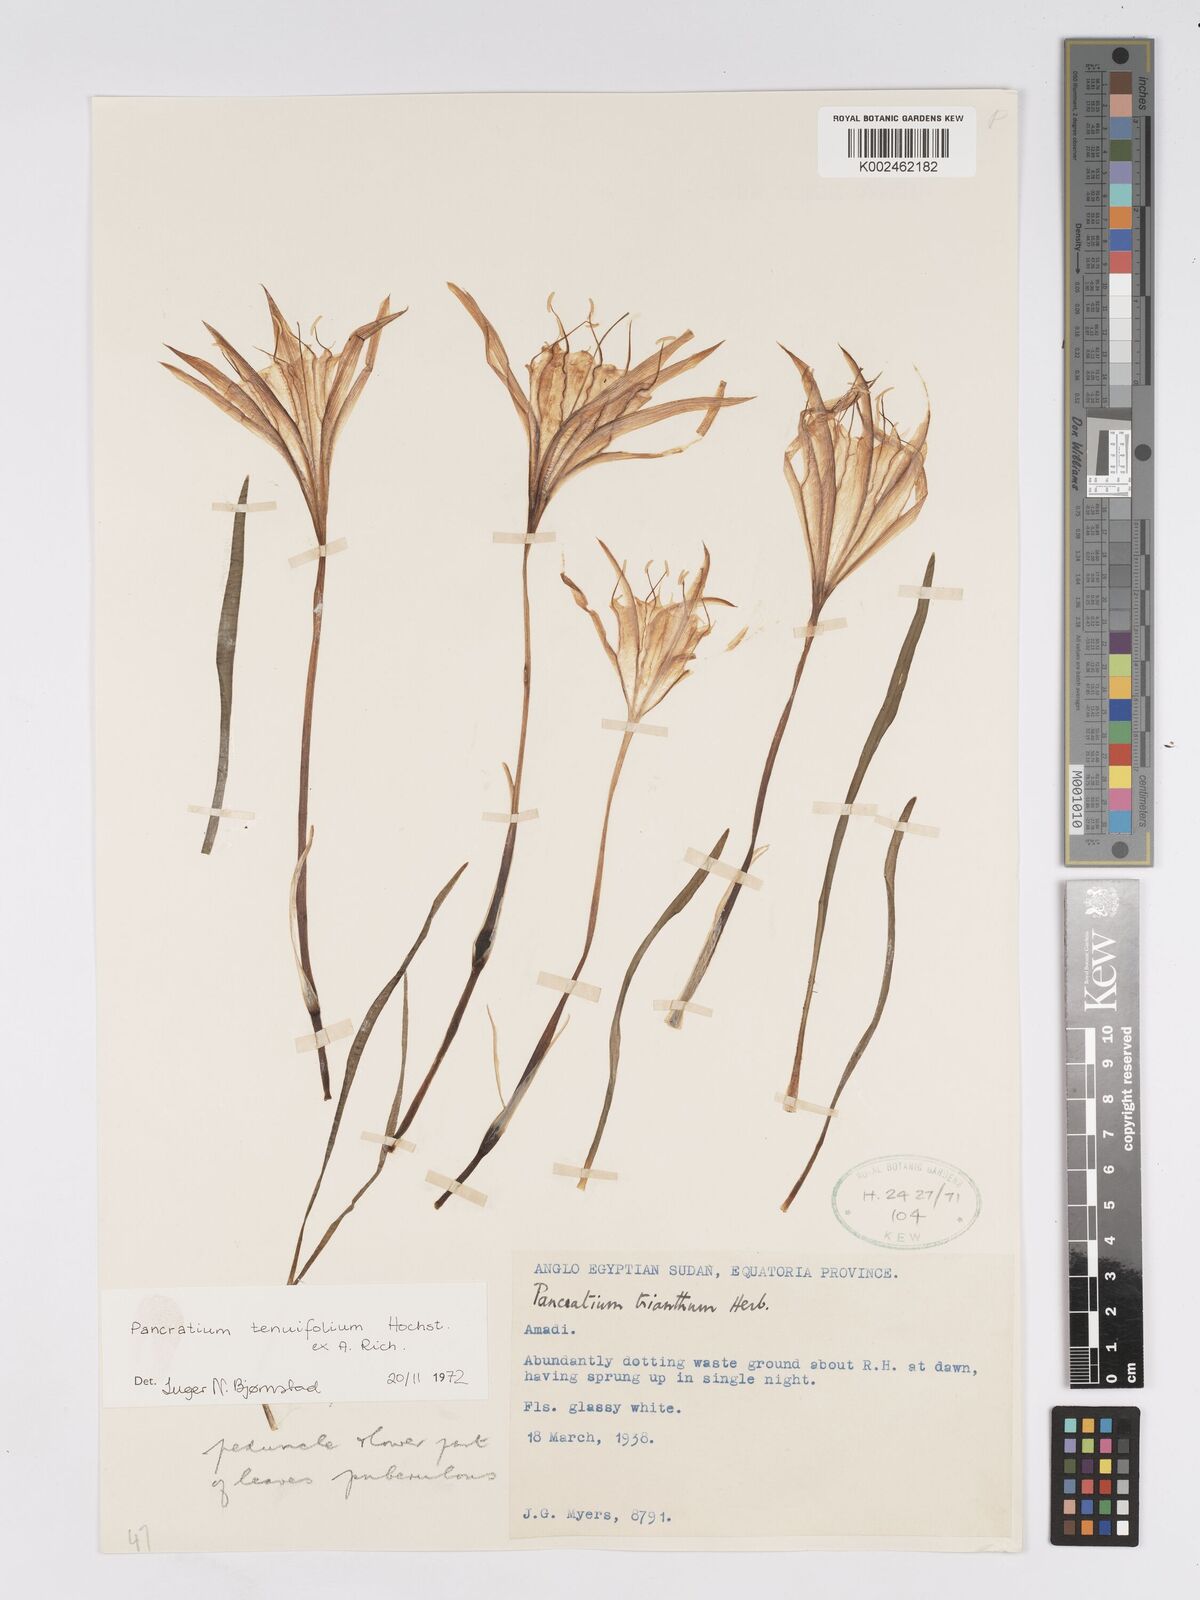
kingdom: Plantae
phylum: Tracheophyta
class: Liliopsida
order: Asparagales
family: Amaryllidaceae
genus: Pancratium
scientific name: Pancratium tenuifolium
